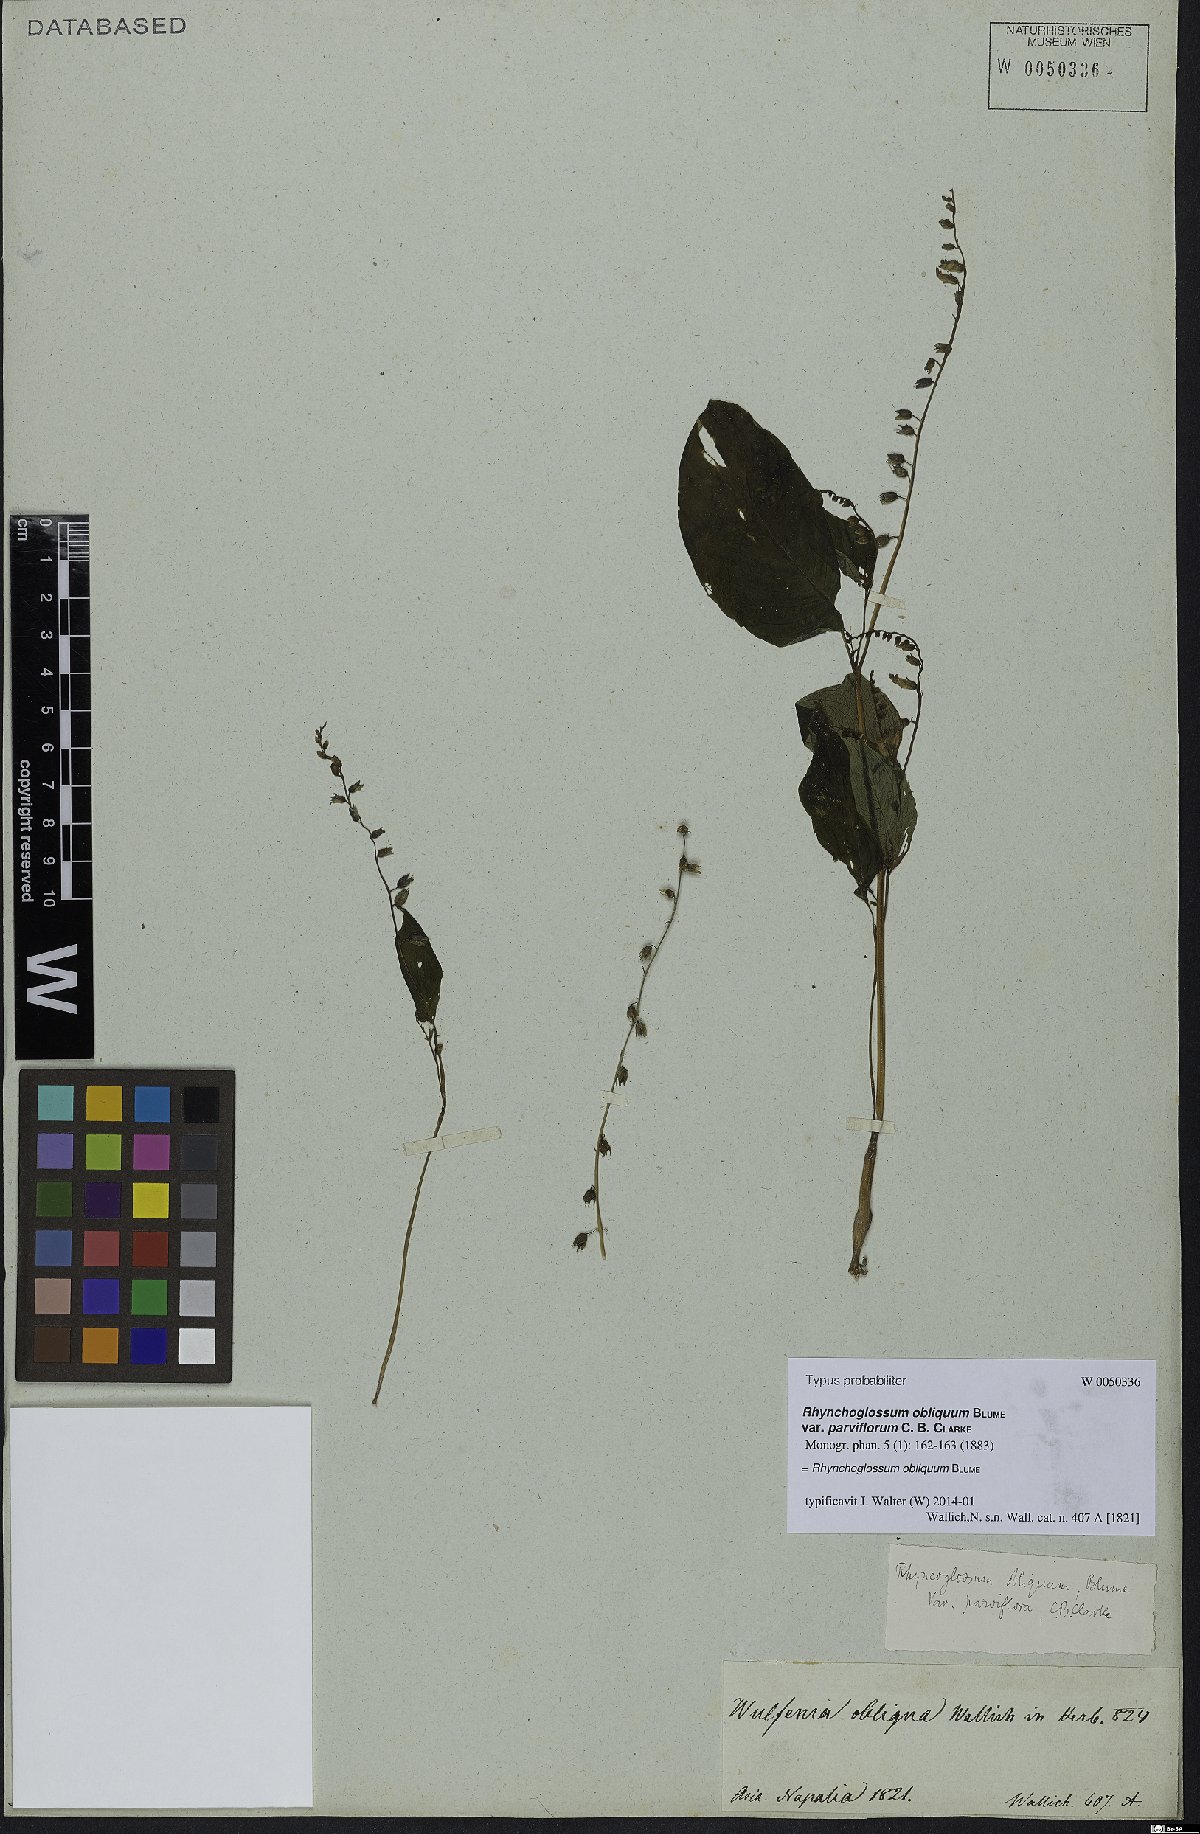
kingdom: Plantae
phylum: Tracheophyta
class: Magnoliopsida
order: Lamiales
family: Gesneriaceae
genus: Rhynchoglossum
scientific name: Rhynchoglossum obliquum
